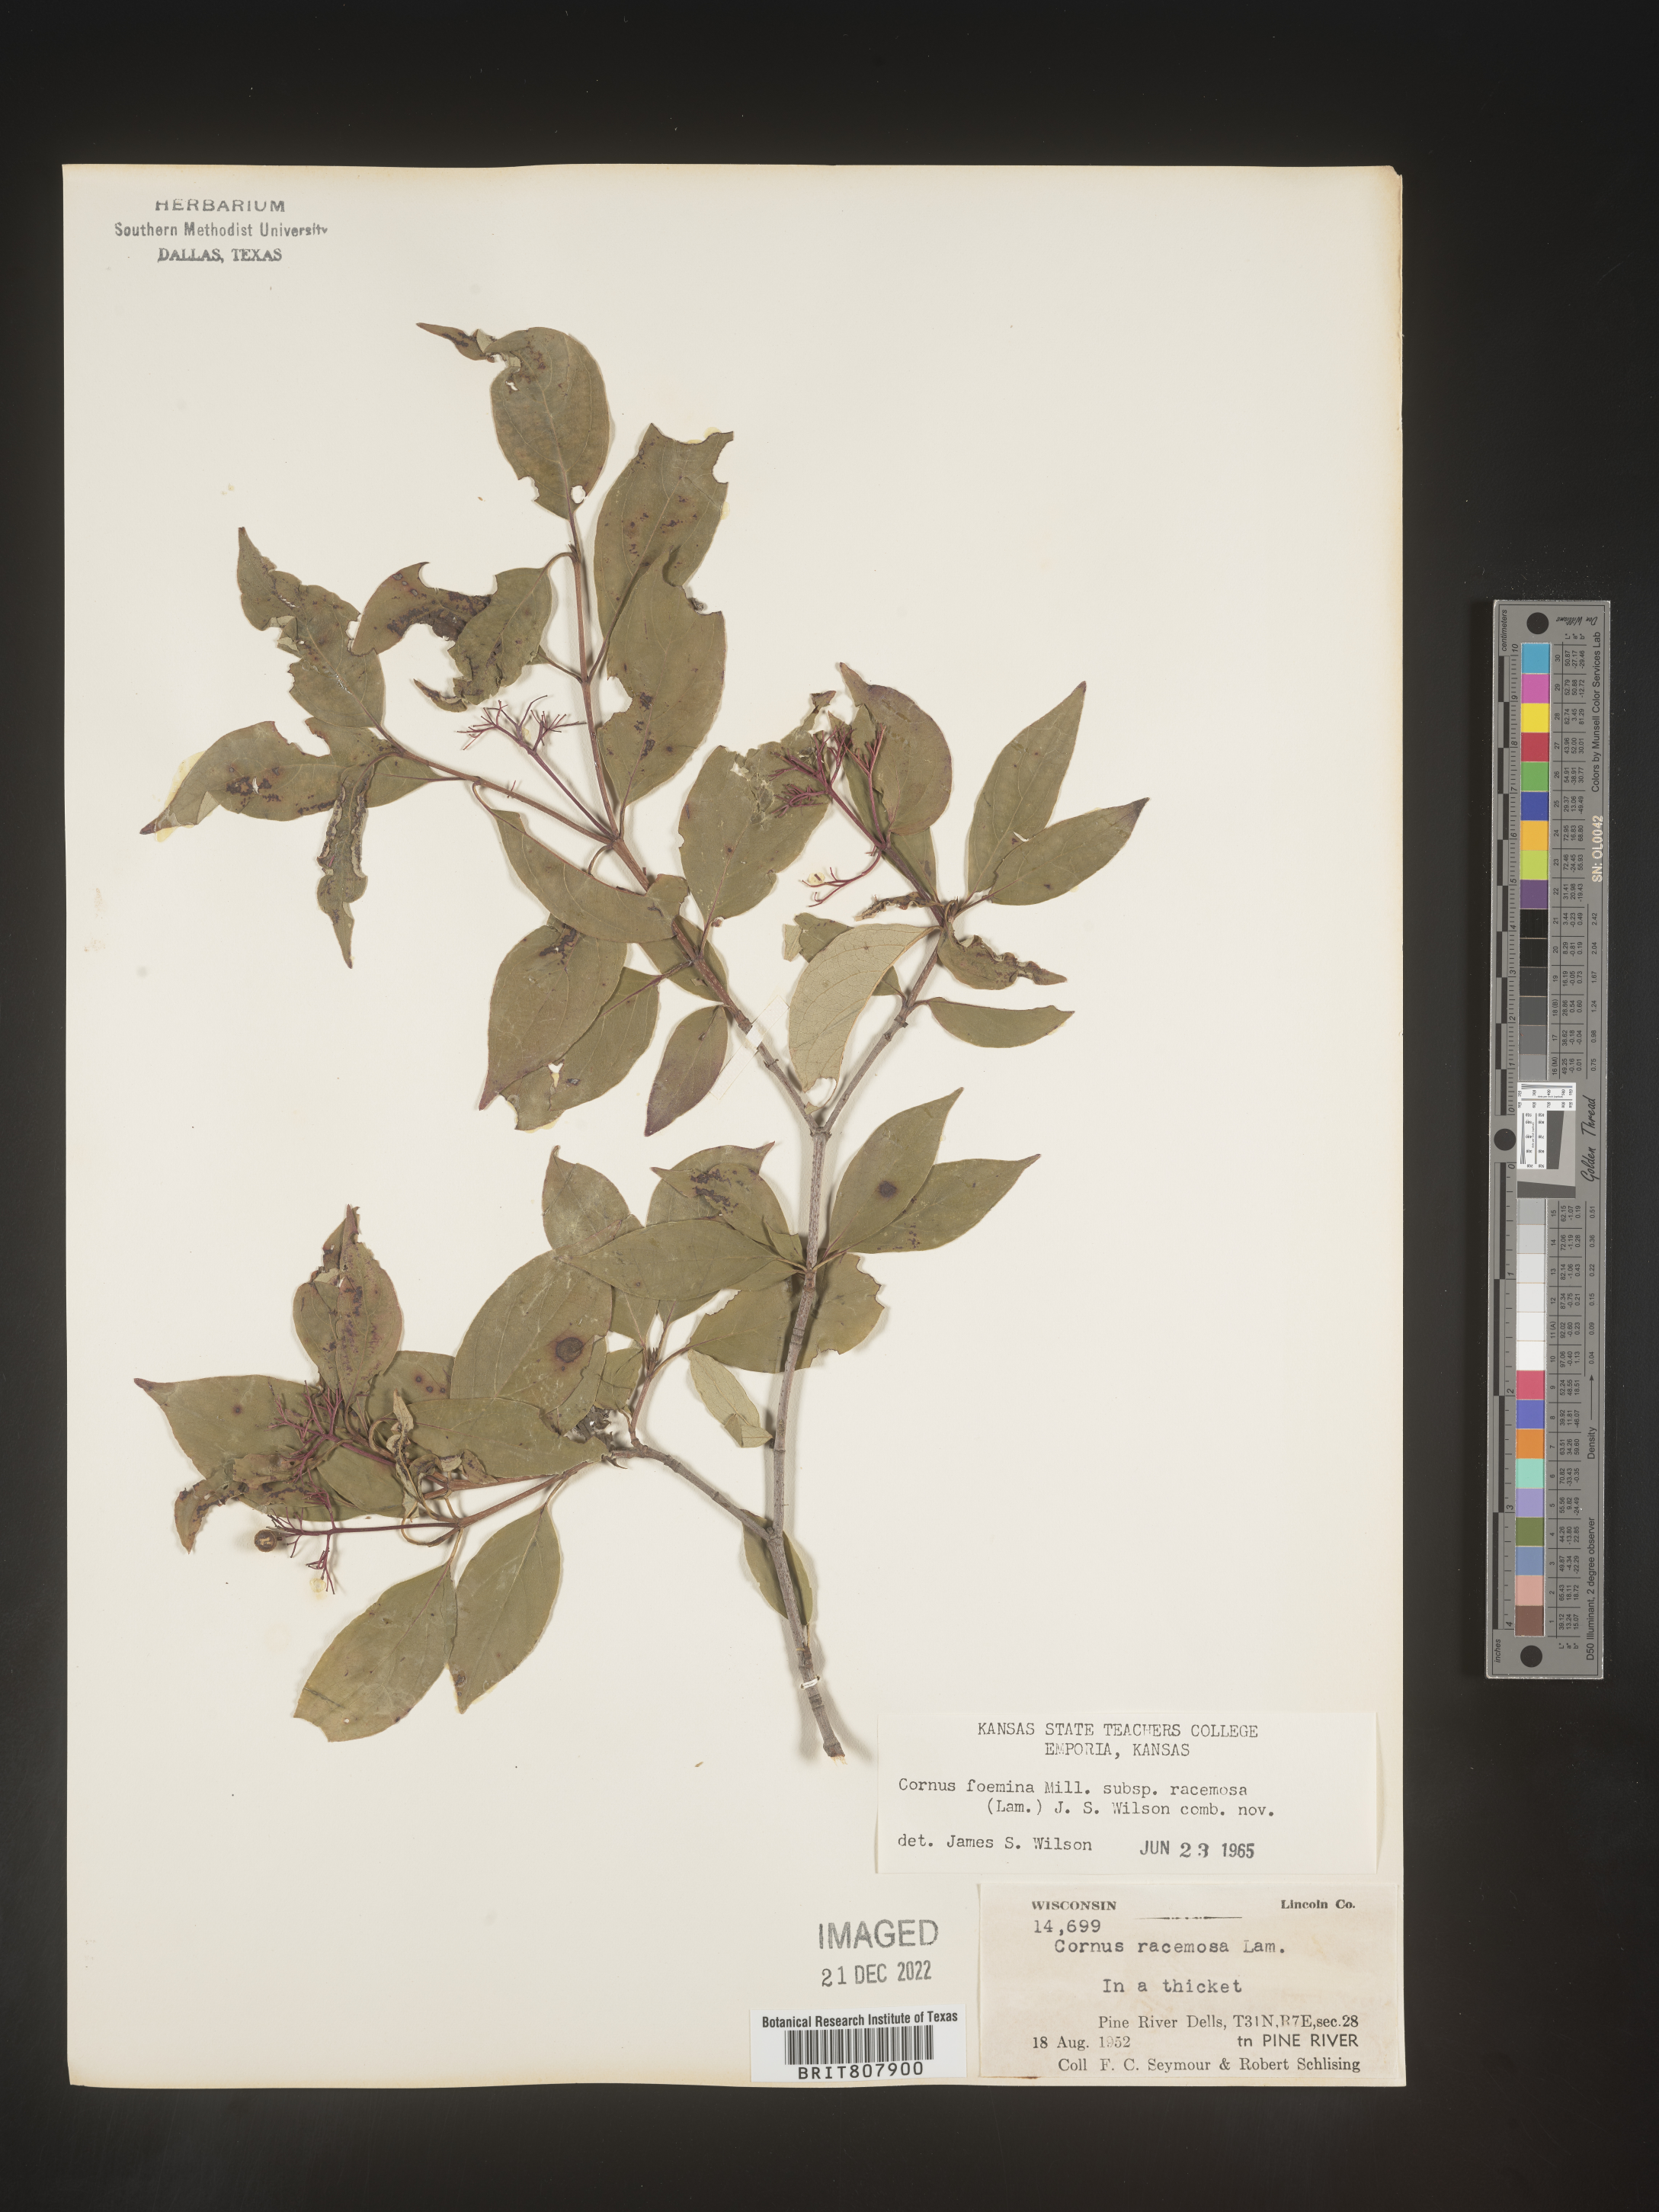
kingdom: Plantae
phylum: Tracheophyta
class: Magnoliopsida
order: Cornales
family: Cornaceae
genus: Cornus
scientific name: Cornus racemosa
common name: Panicled dogwood
